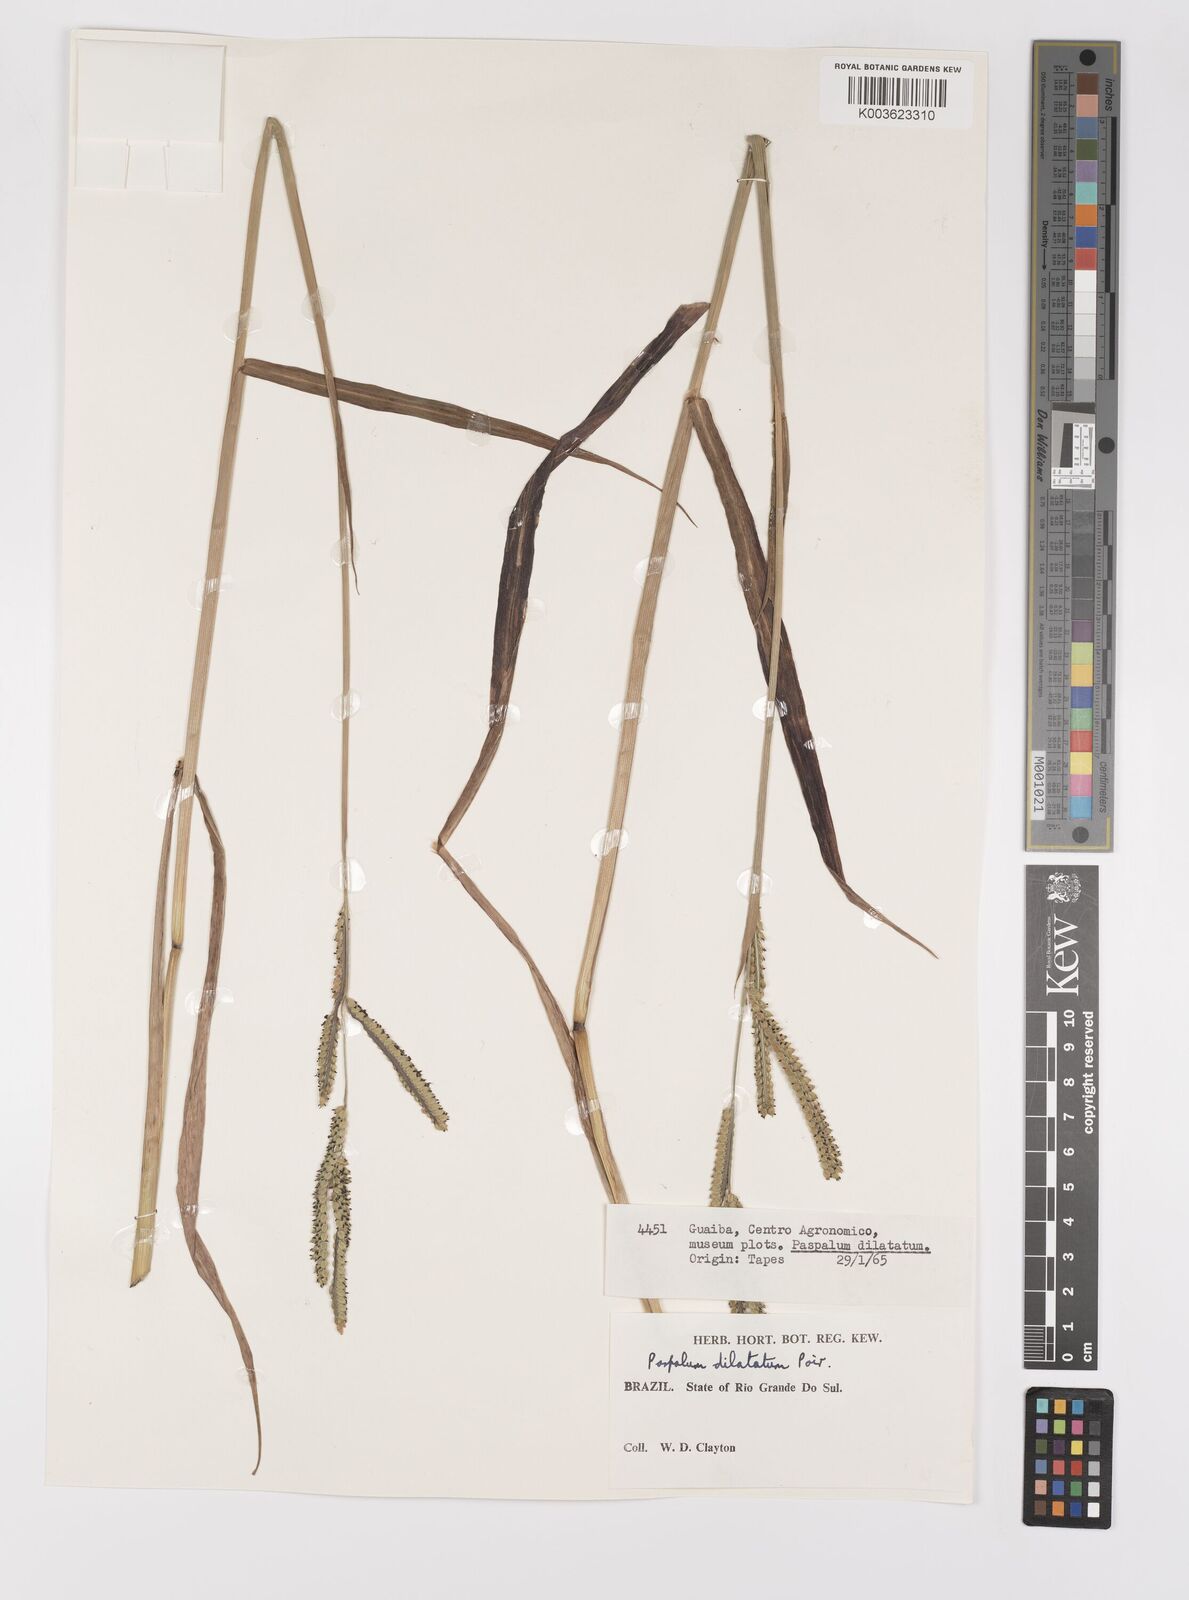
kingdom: Plantae
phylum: Tracheophyta
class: Liliopsida
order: Poales
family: Poaceae
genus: Paspalum
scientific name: Paspalum dilatatum
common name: Dallisgrass
